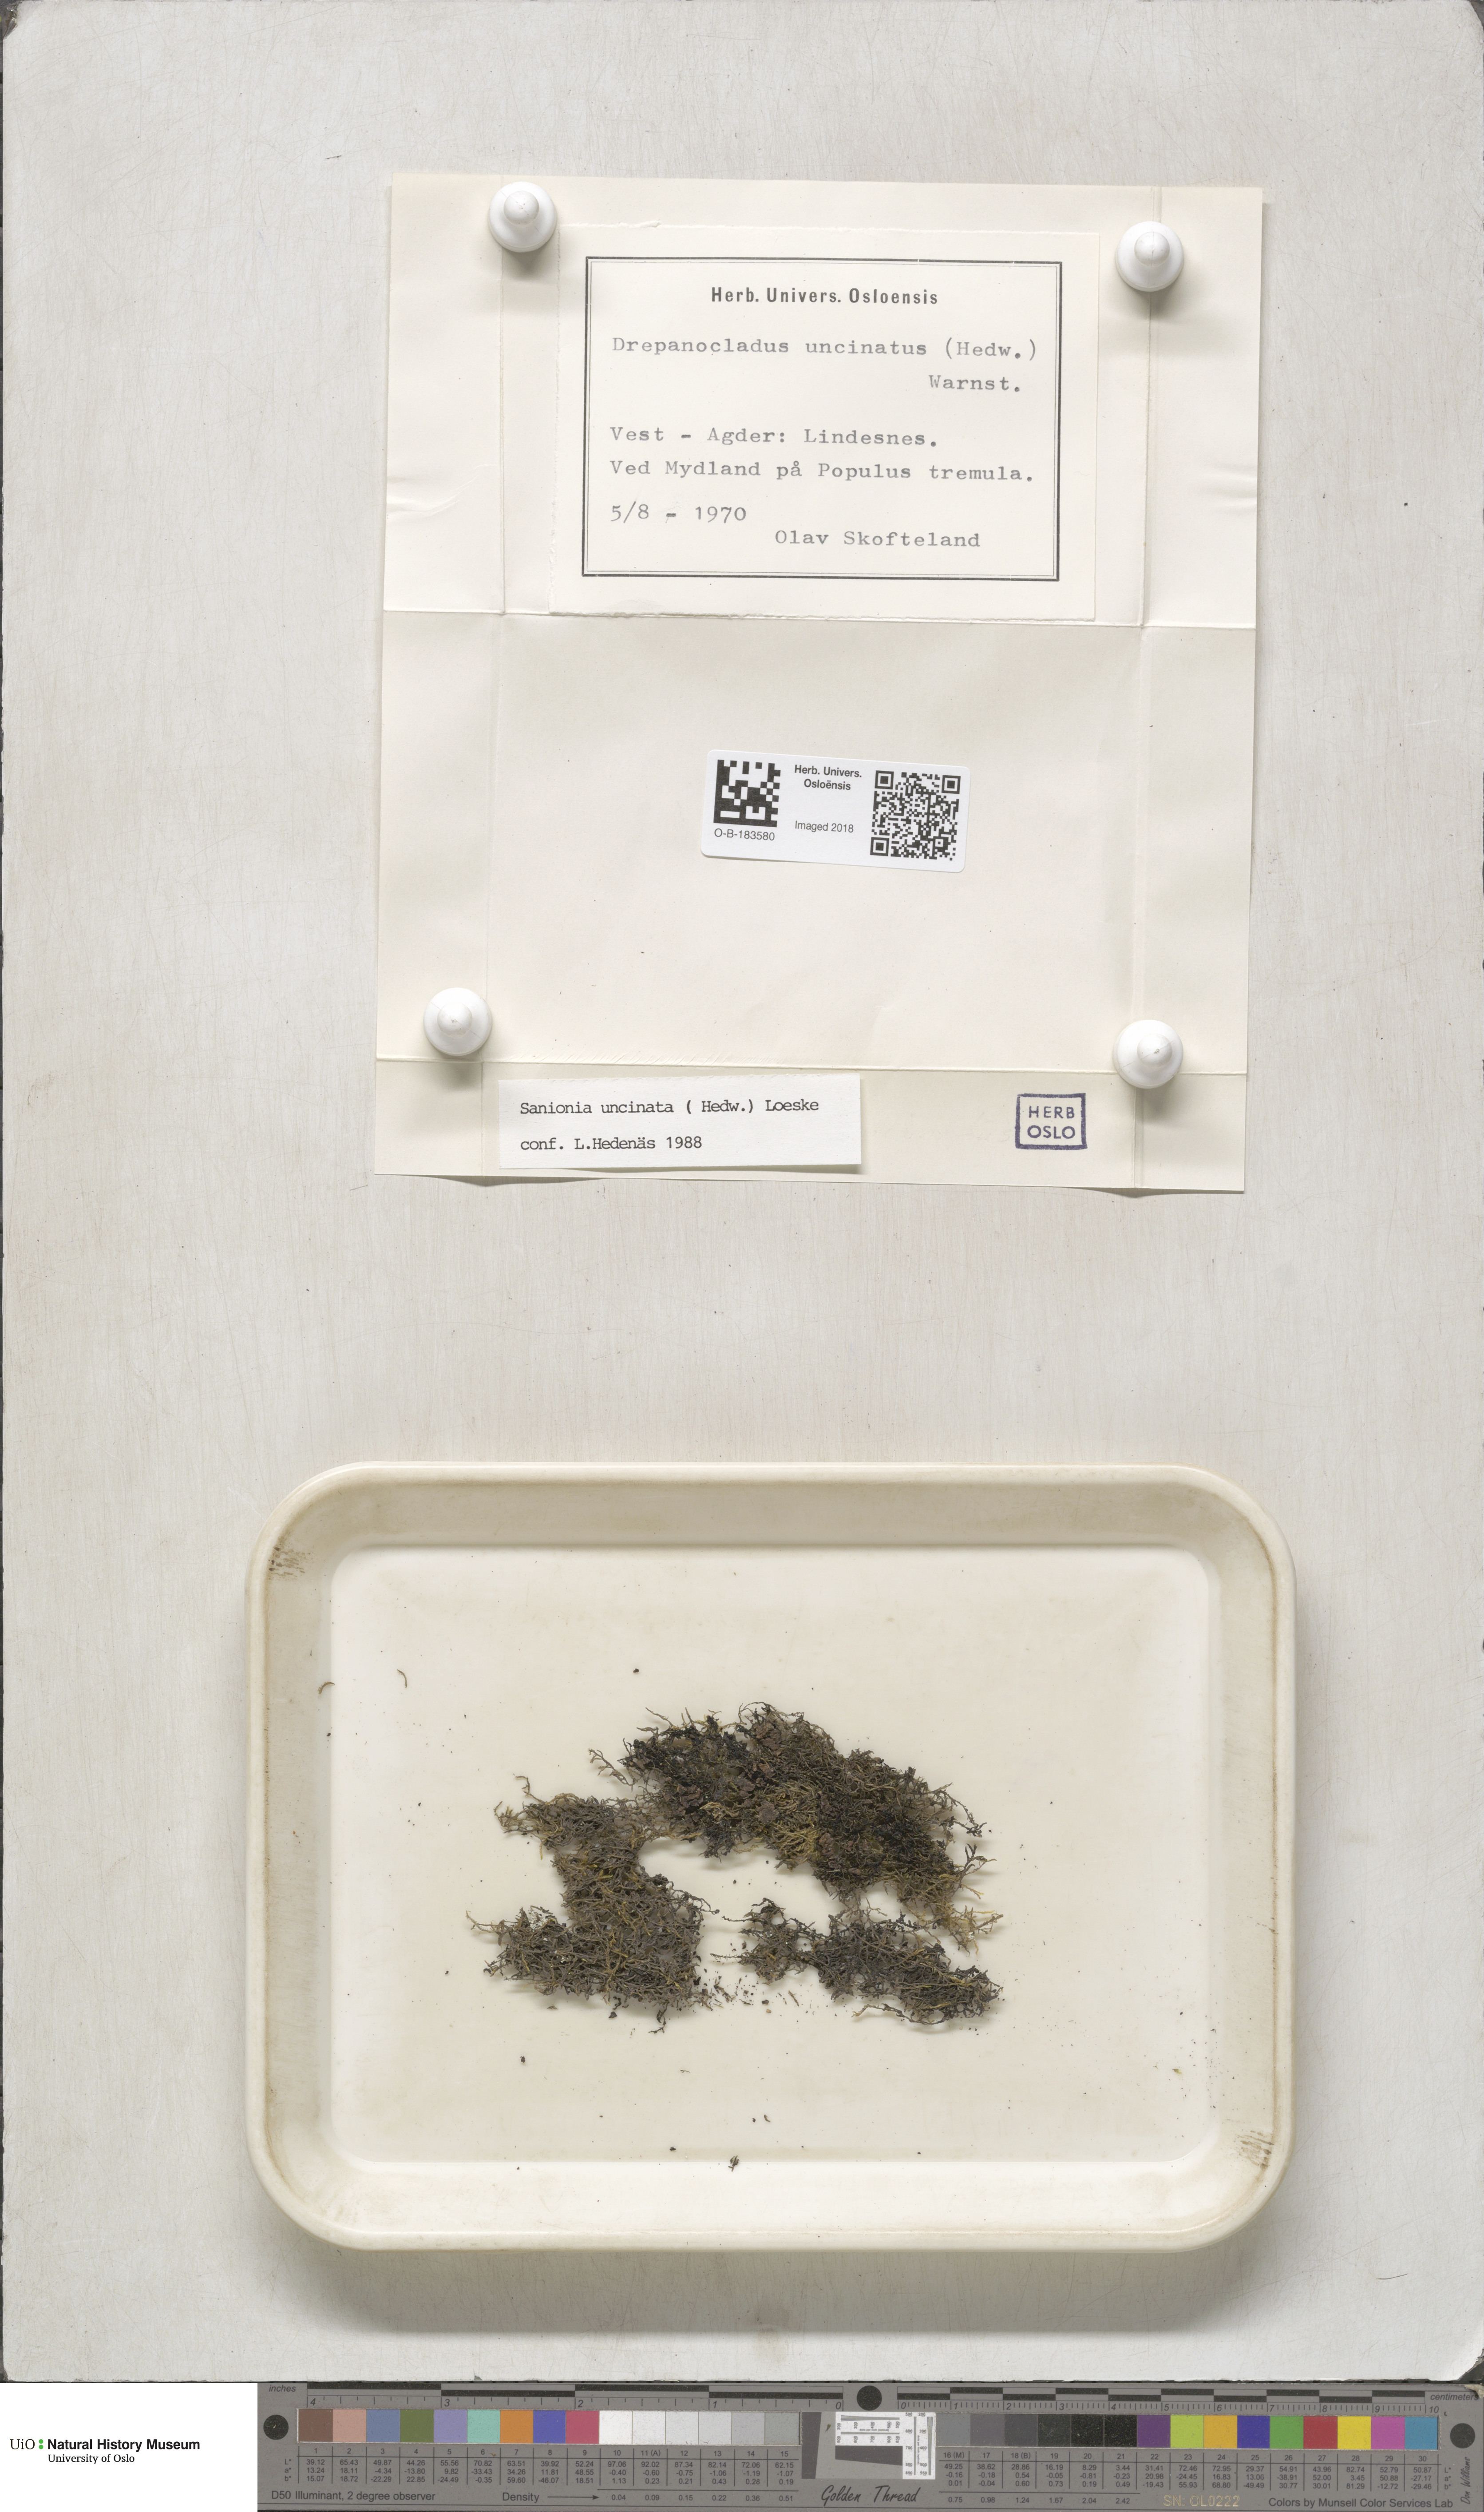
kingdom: Plantae
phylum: Bryophyta
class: Bryopsida
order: Hypnales
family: Scorpidiaceae
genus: Sanionia
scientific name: Sanionia uncinata
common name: Sickle moss
